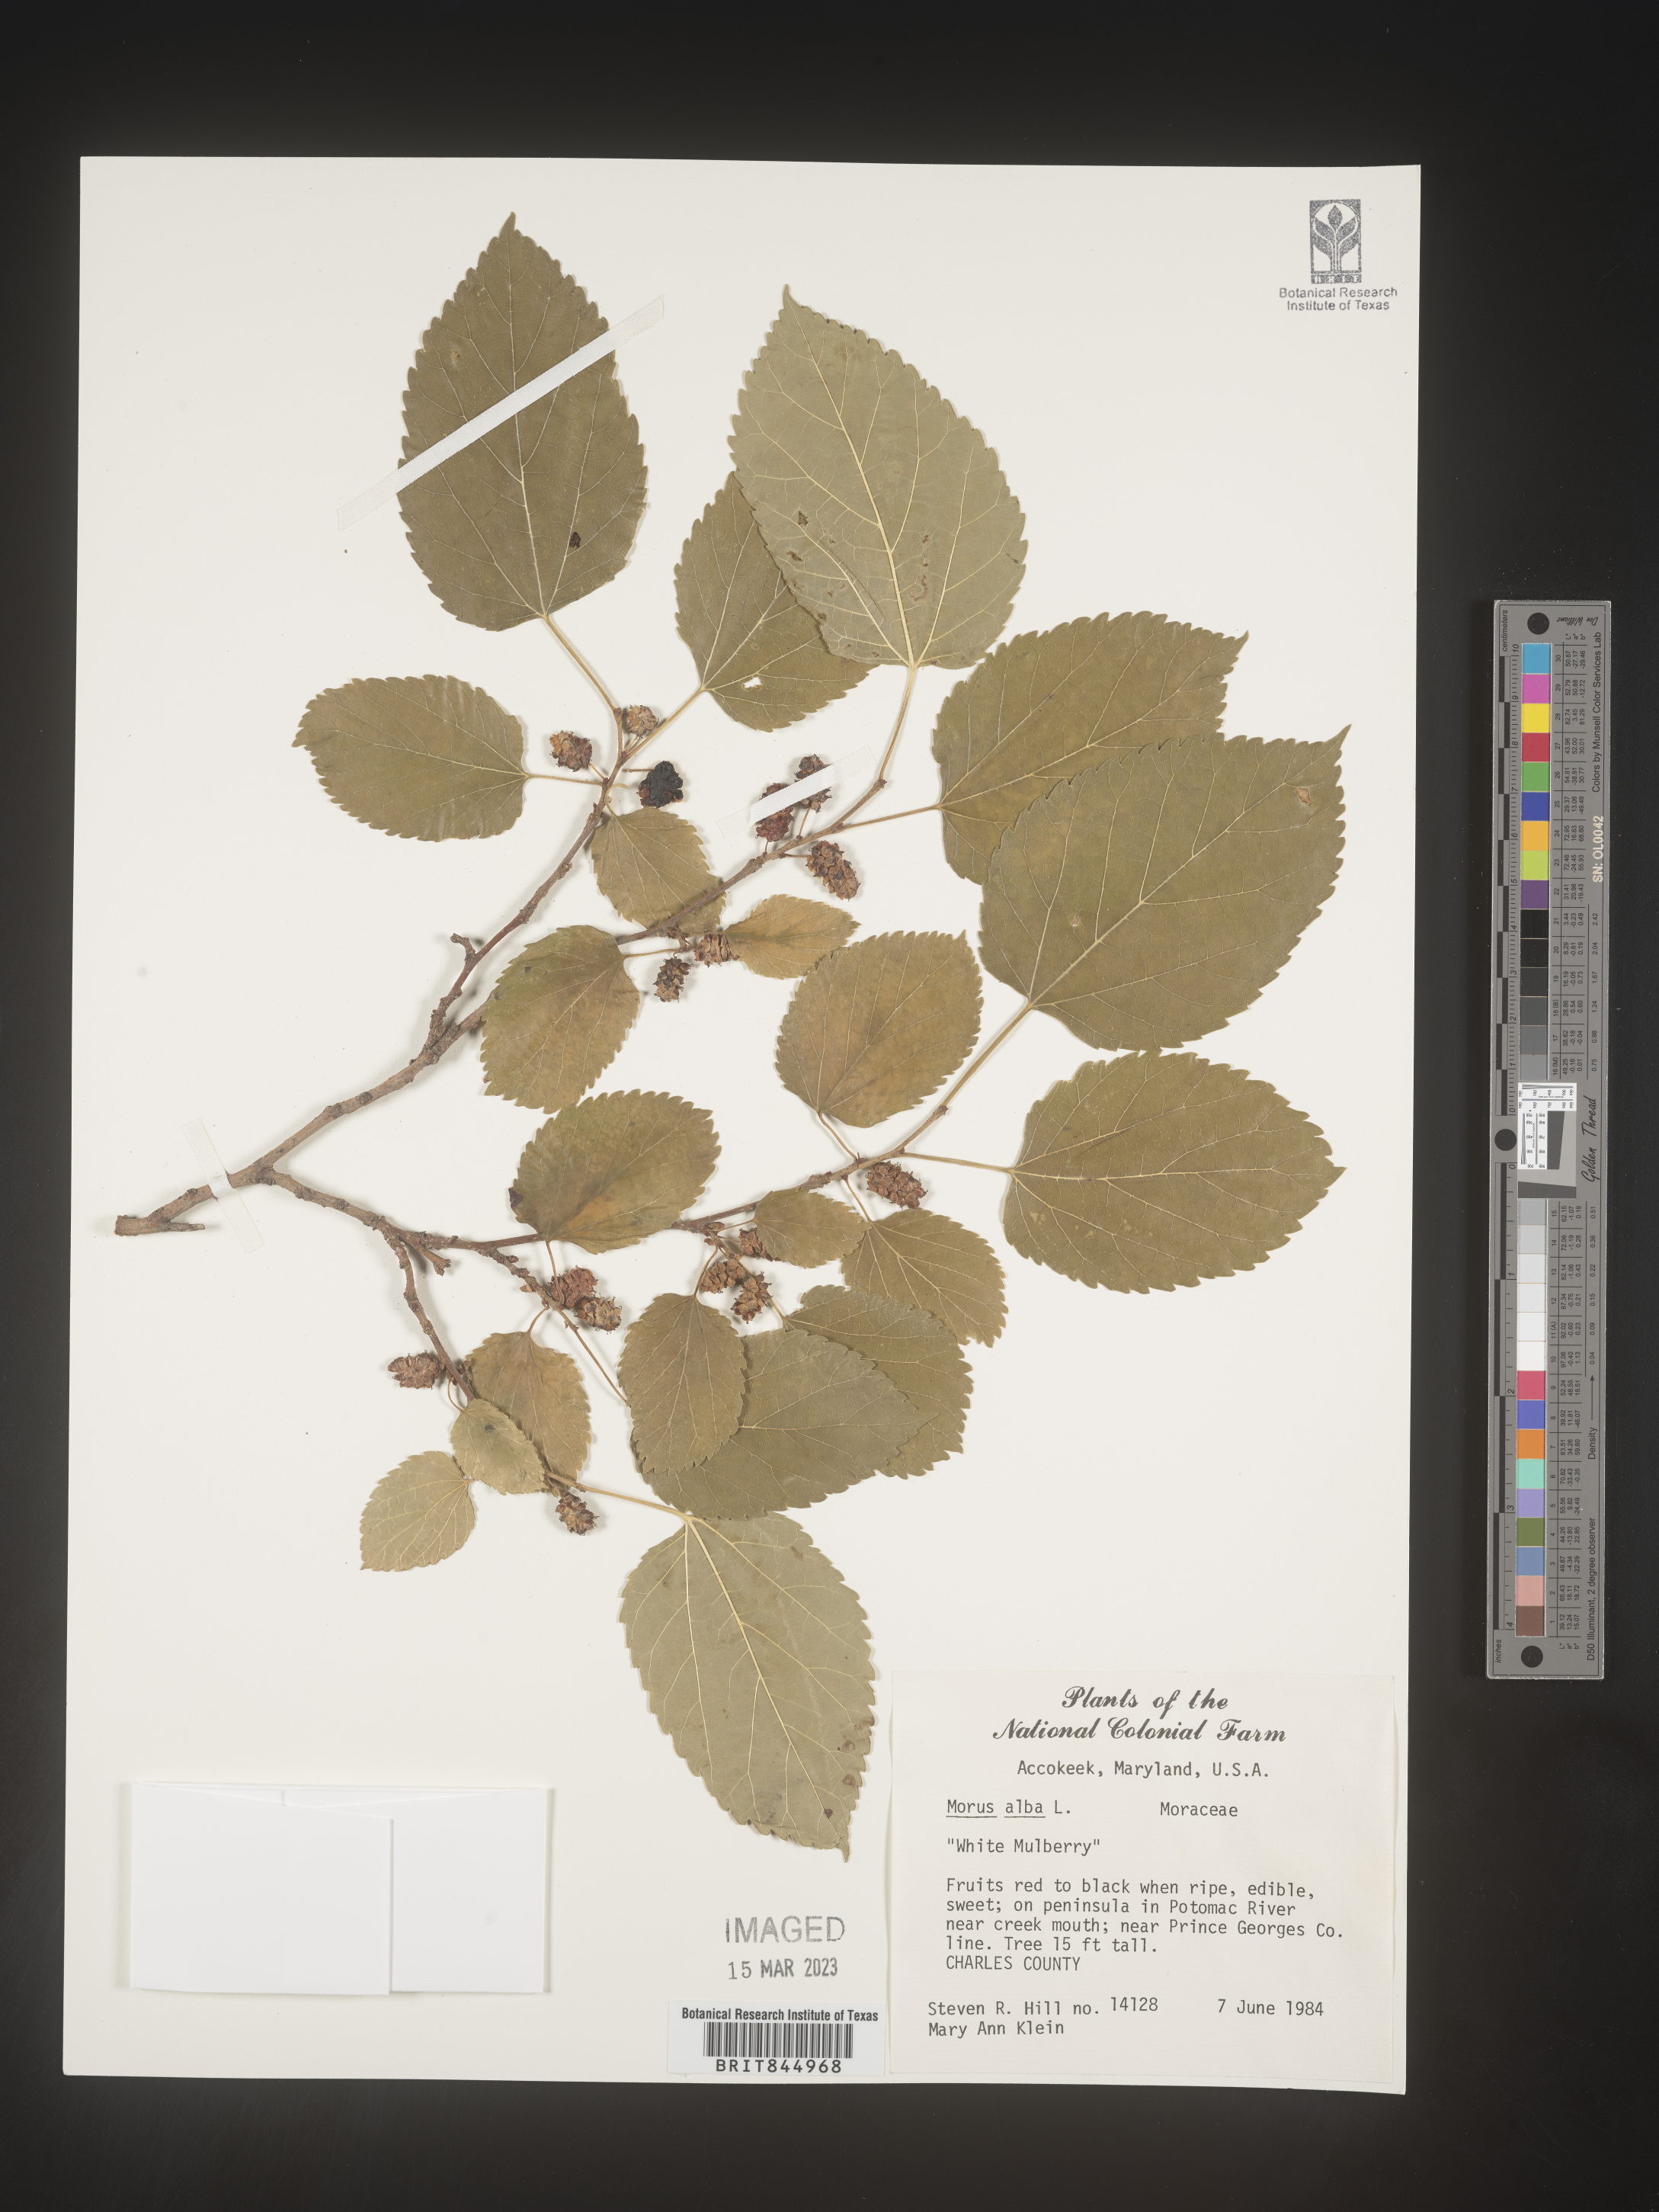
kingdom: Plantae
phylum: Tracheophyta
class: Magnoliopsida
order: Rosales
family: Moraceae
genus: Morus
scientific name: Morus alba
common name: White mulberry
